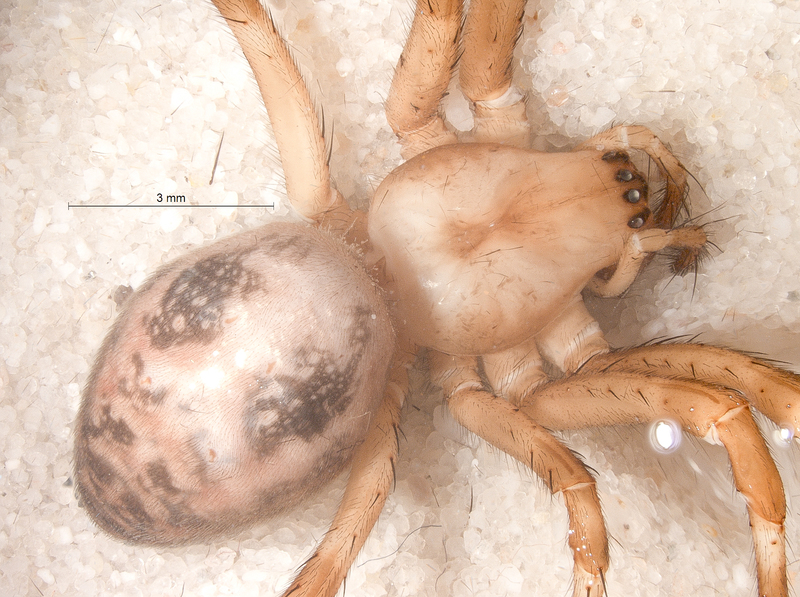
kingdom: Animalia
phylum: Arthropoda
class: Arachnida
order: Araneae
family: Tetragnathidae
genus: Meta
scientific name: Meta menardi
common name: Cave spider
